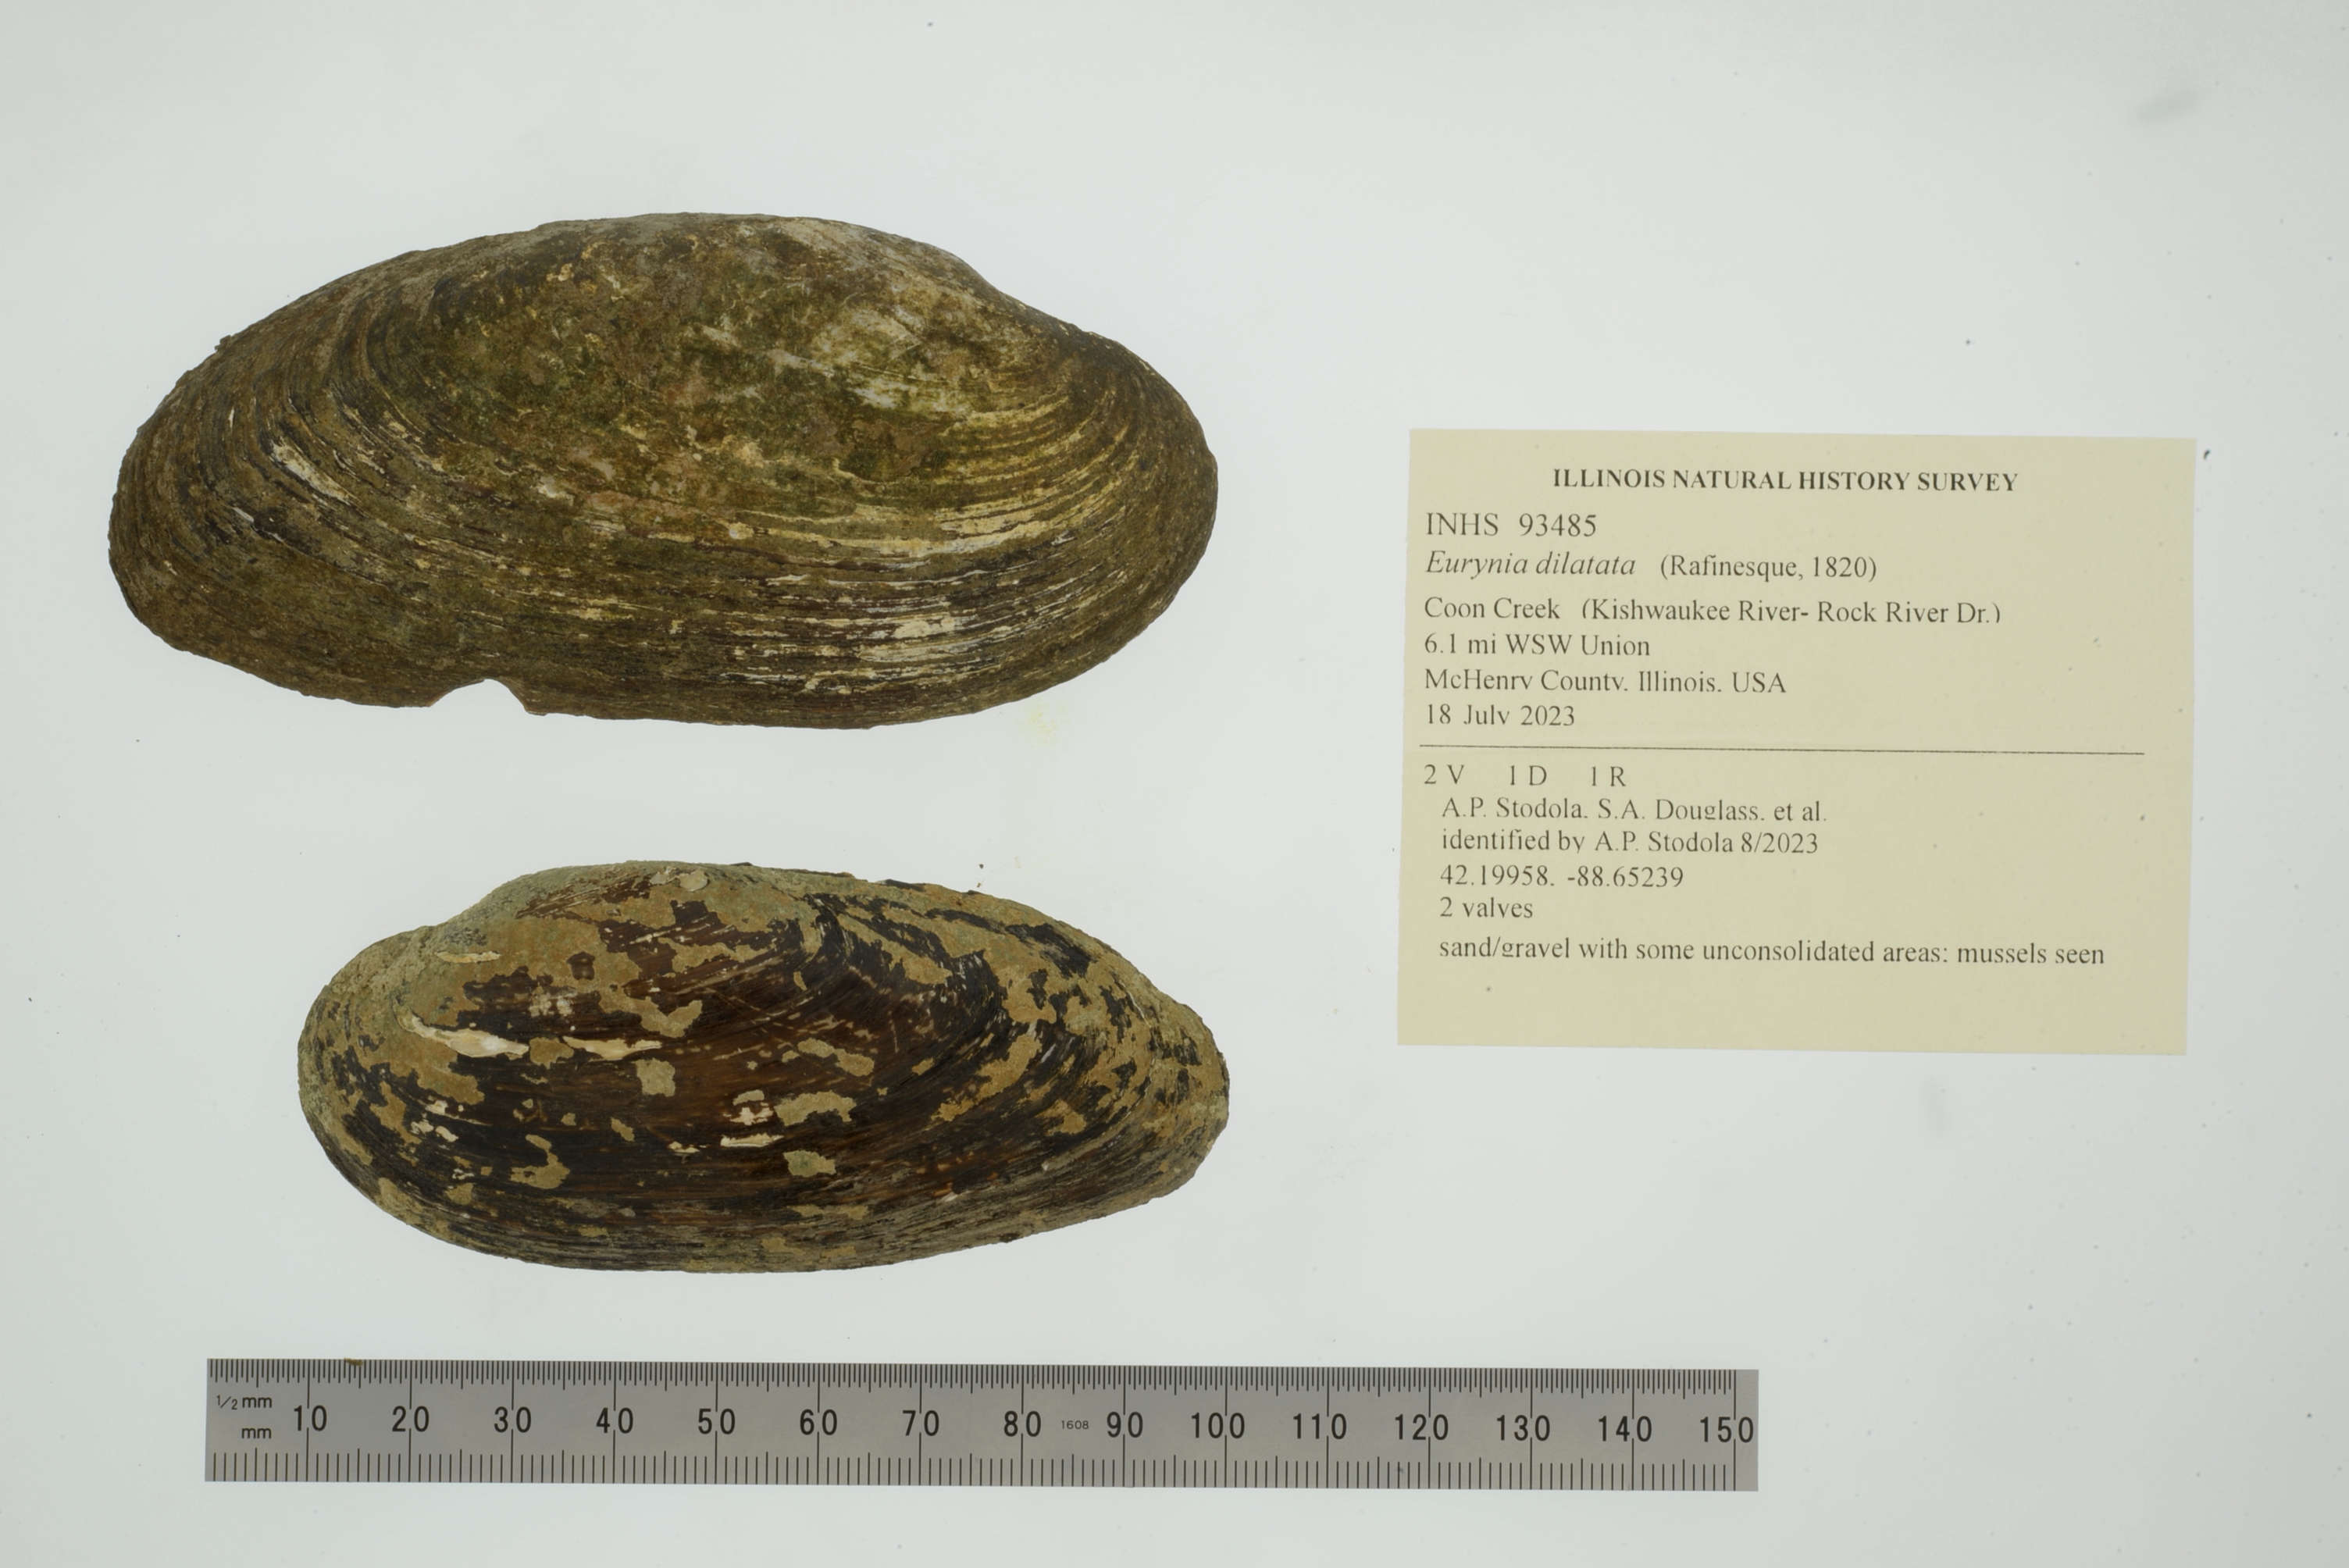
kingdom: Animalia
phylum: Mollusca
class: Bivalvia
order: Unionida
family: Unionidae
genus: Eurynia
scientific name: Eurynia dilatata
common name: Spike
